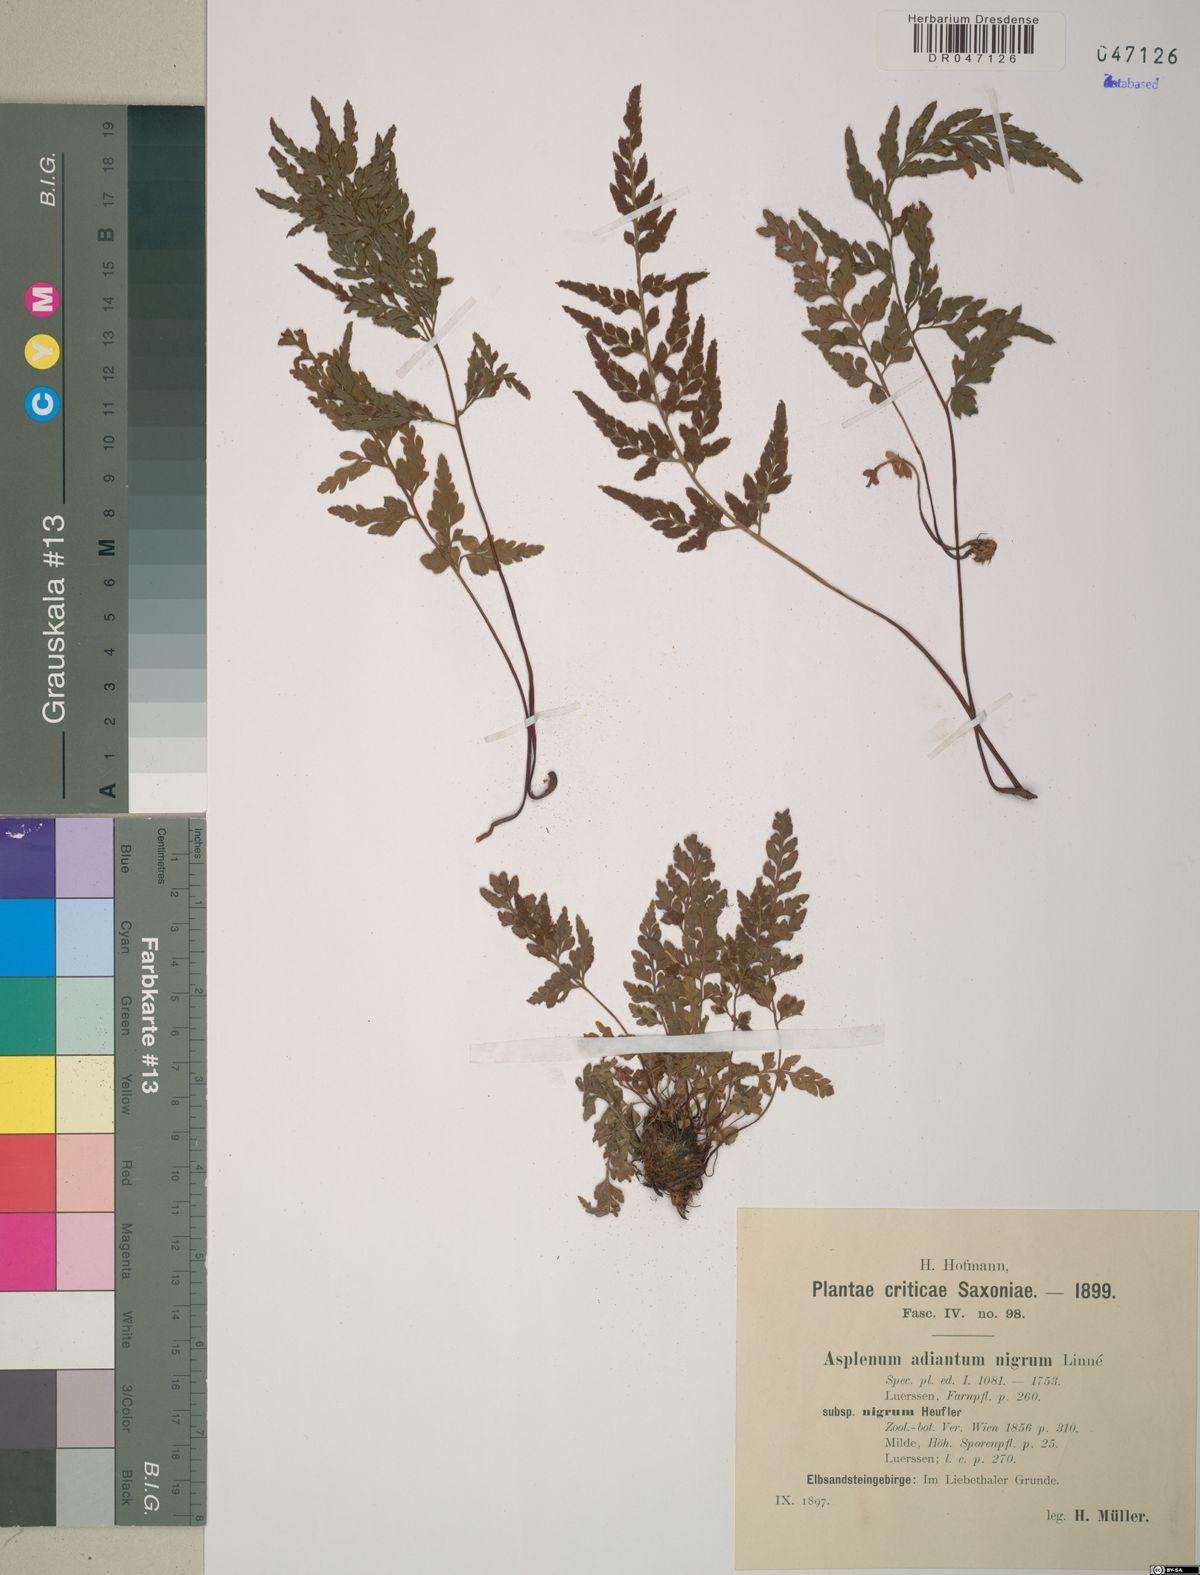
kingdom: Plantae
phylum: Tracheophyta
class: Polypodiopsida
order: Polypodiales
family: Aspleniaceae
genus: Asplenium
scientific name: Asplenium adiantum-nigrum
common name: Black spleenwort
